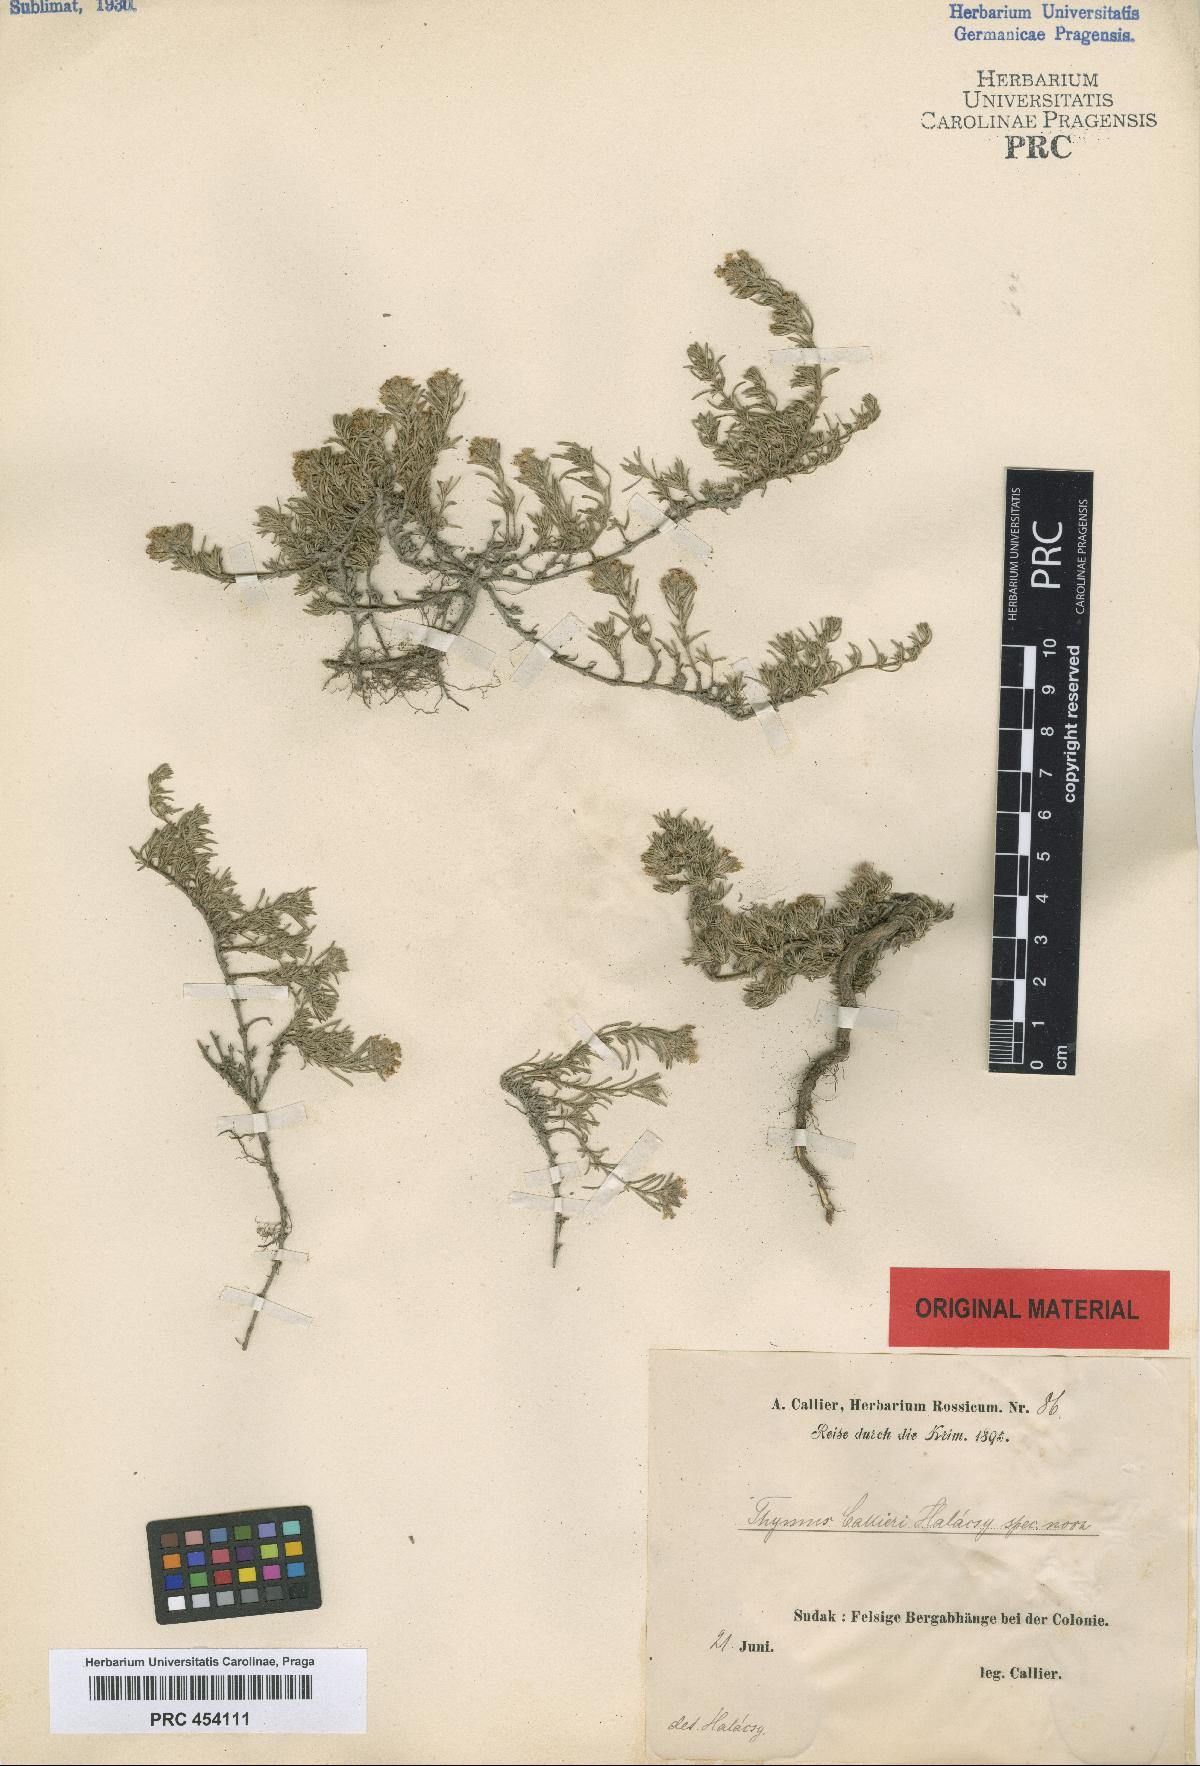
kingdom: Plantae
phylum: Tracheophyta
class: Magnoliopsida
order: Lamiales
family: Lamiaceae
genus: Thymus
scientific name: Thymus callieri
